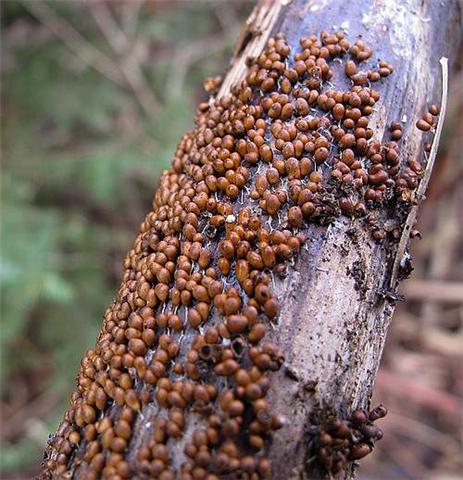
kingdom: Protozoa
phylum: Mycetozoa
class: Myxomycetes
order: Physarales
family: Physaraceae
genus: Leocarpus
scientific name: Leocarpus fragilis
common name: poleret glatfrø
